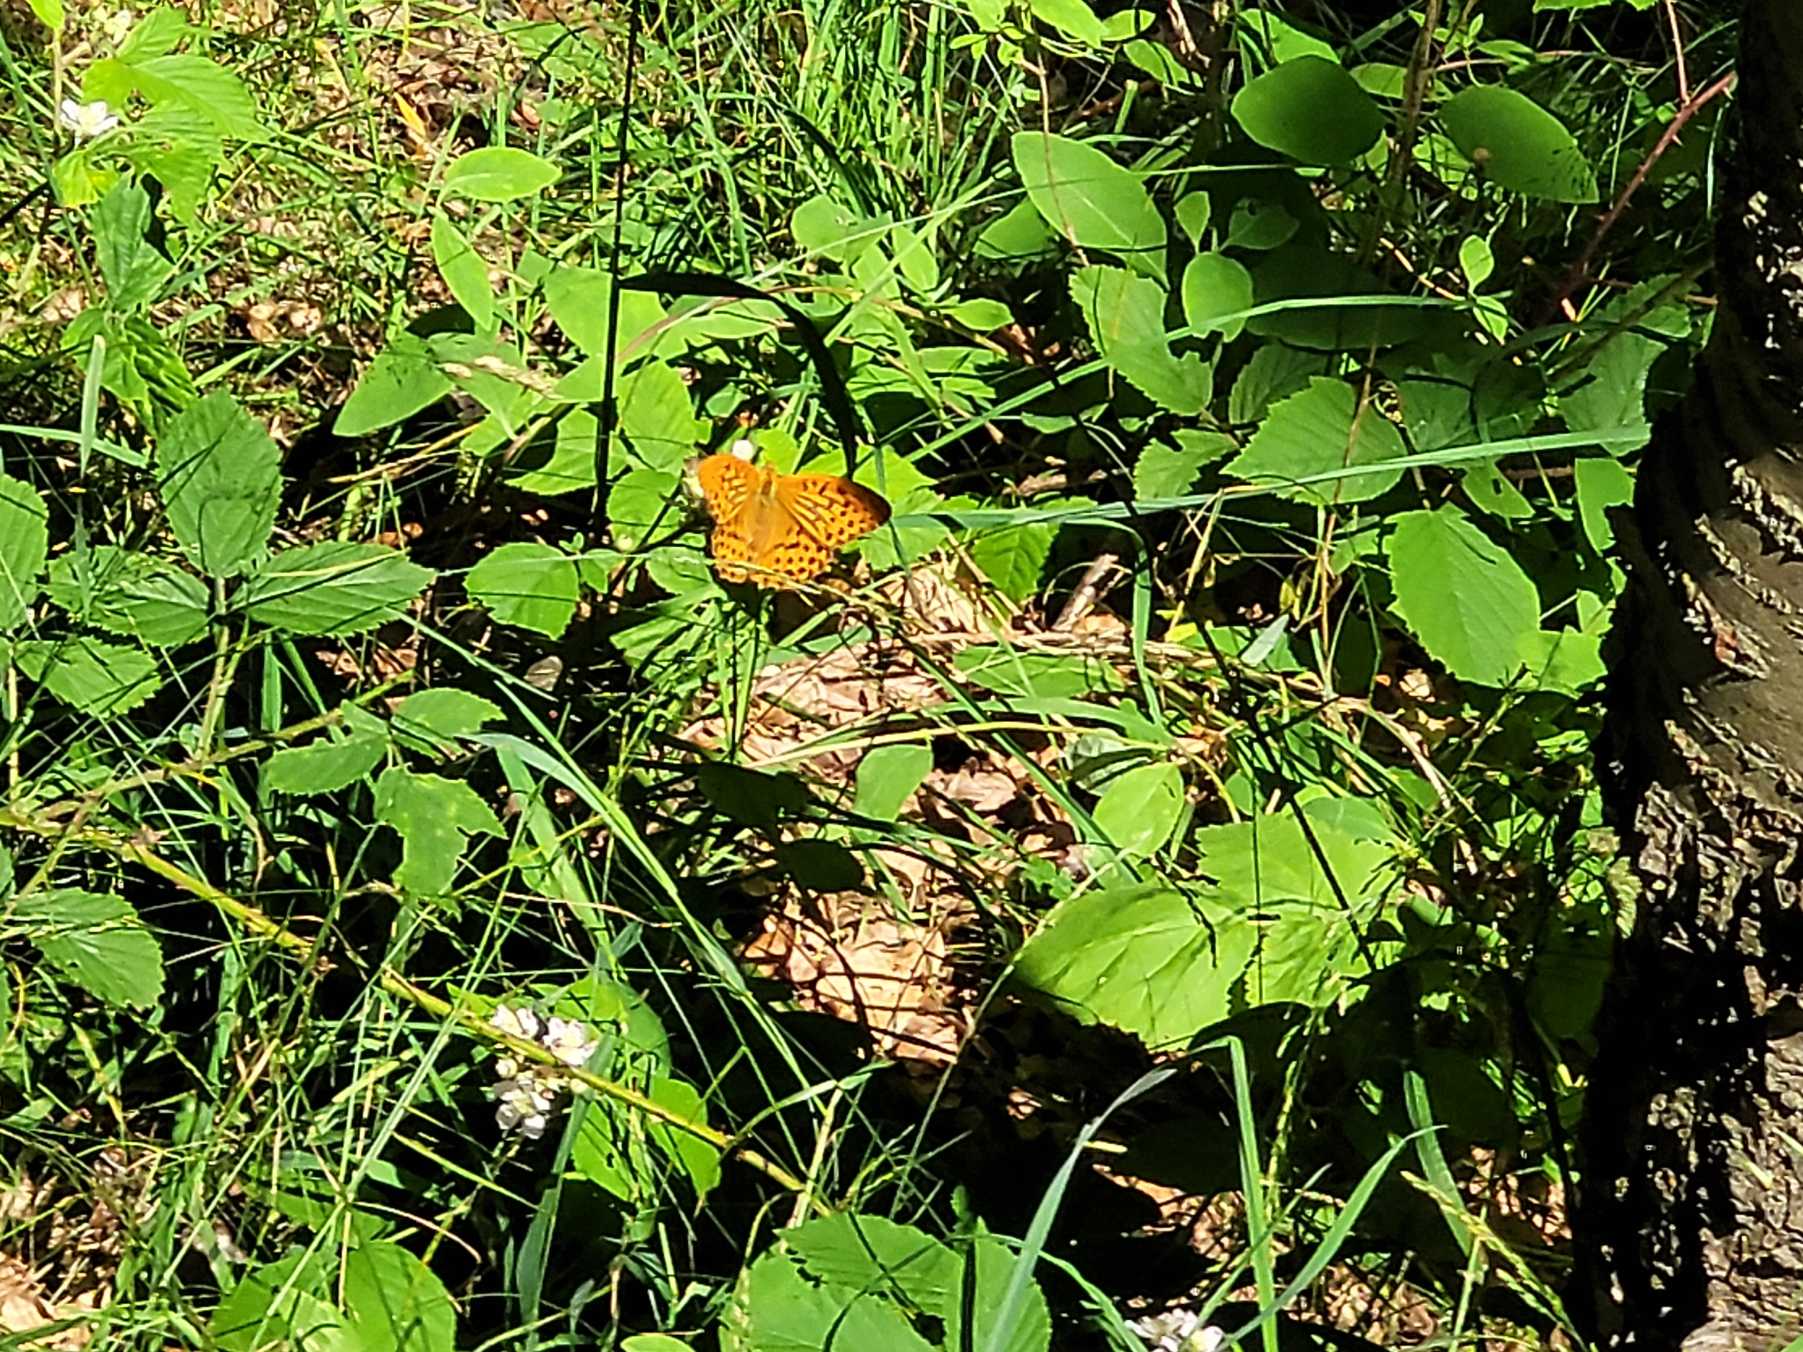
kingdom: Animalia
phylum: Arthropoda
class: Insecta
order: Lepidoptera
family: Nymphalidae
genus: Argynnis
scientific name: Argynnis paphia
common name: Kejserkåbe
